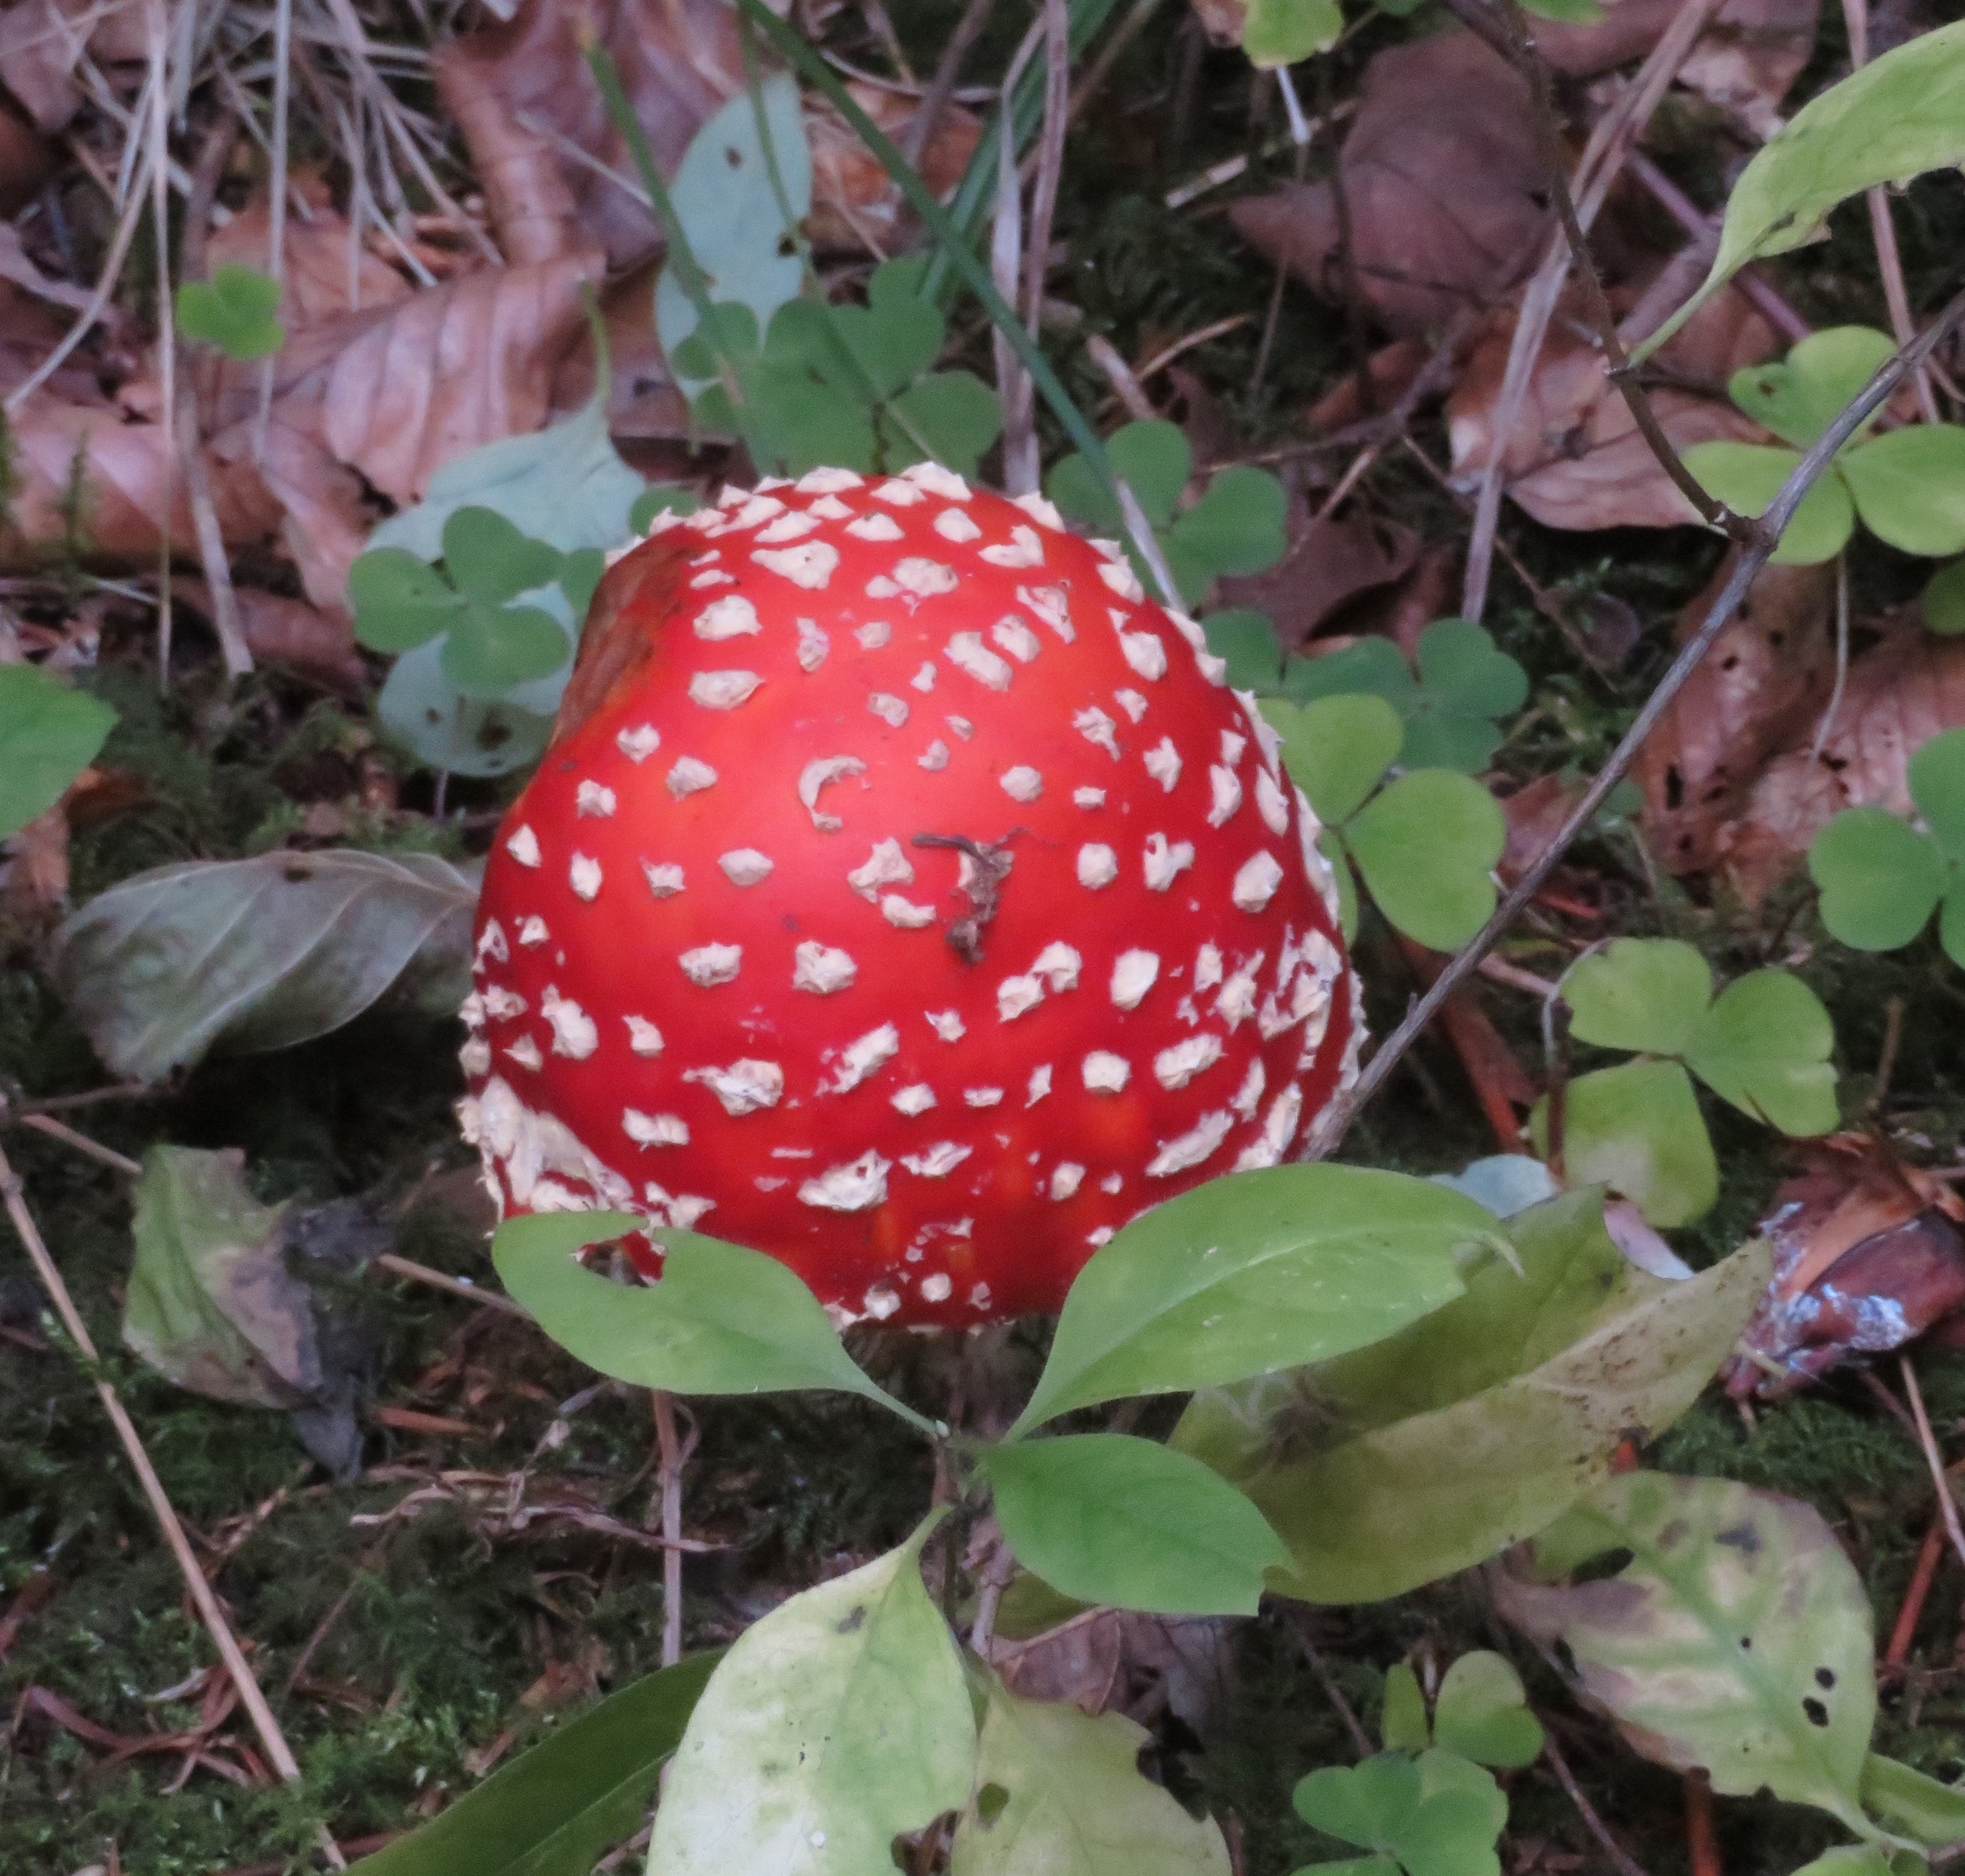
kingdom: Fungi
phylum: Basidiomycota
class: Agaricomycetes
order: Agaricales
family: Amanitaceae
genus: Amanita
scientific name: Amanita muscaria
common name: Rød fluesvamp
